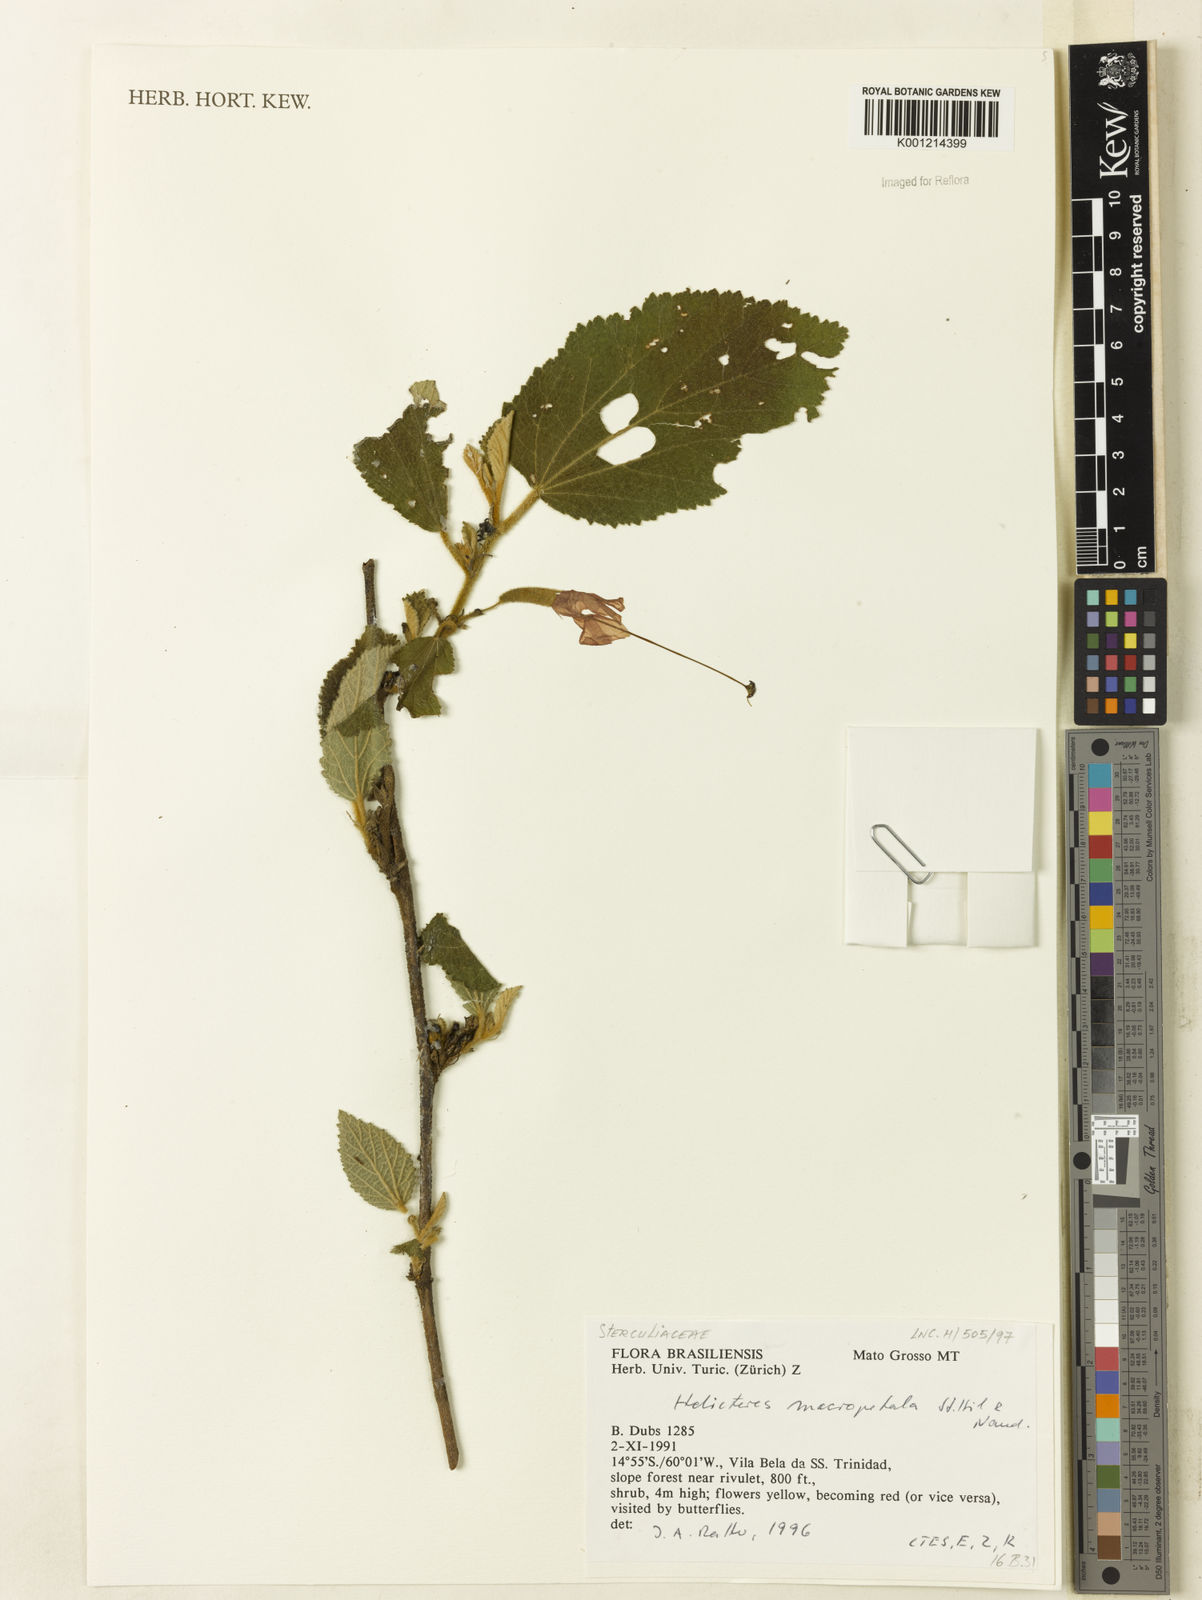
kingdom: Plantae
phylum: Tracheophyta
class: Magnoliopsida
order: Malvales
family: Malvaceae
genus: Helicteres
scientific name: Helicteres
